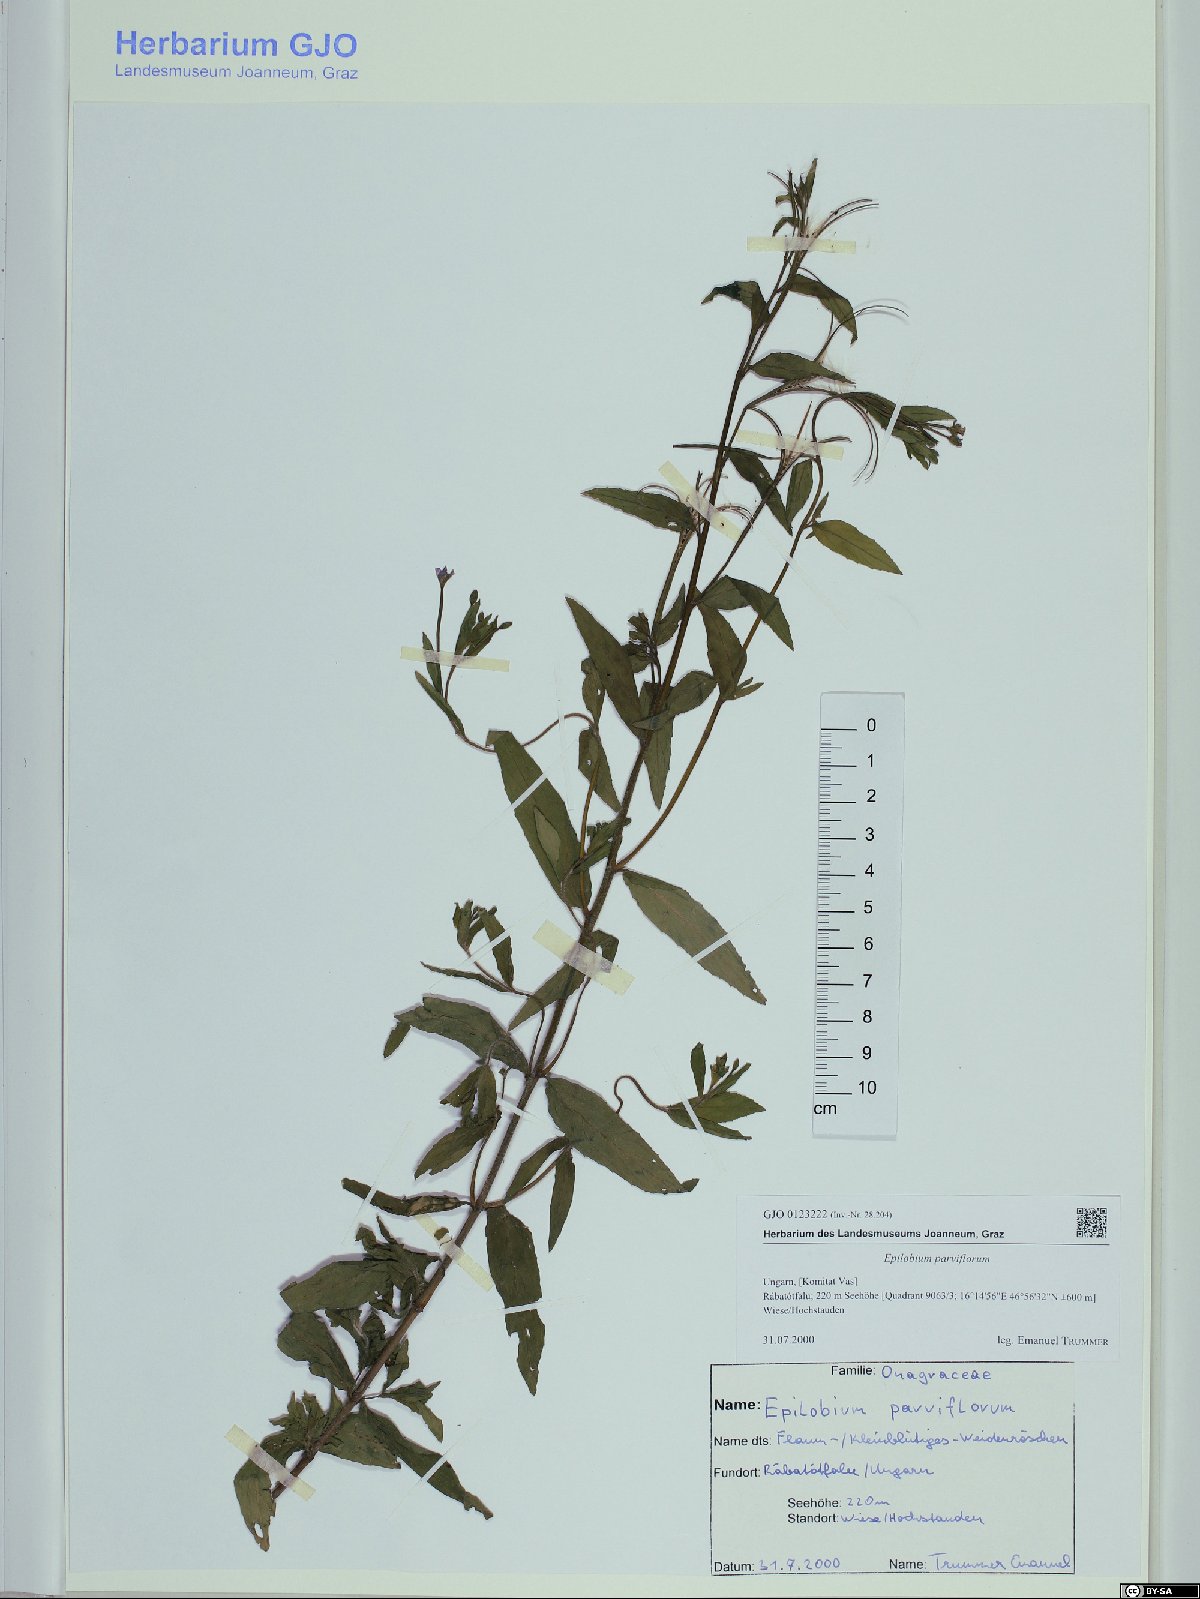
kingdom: Plantae
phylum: Tracheophyta
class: Magnoliopsida
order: Myrtales
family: Onagraceae
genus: Epilobium
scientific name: Epilobium parviflorum
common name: Hoary willowherb
